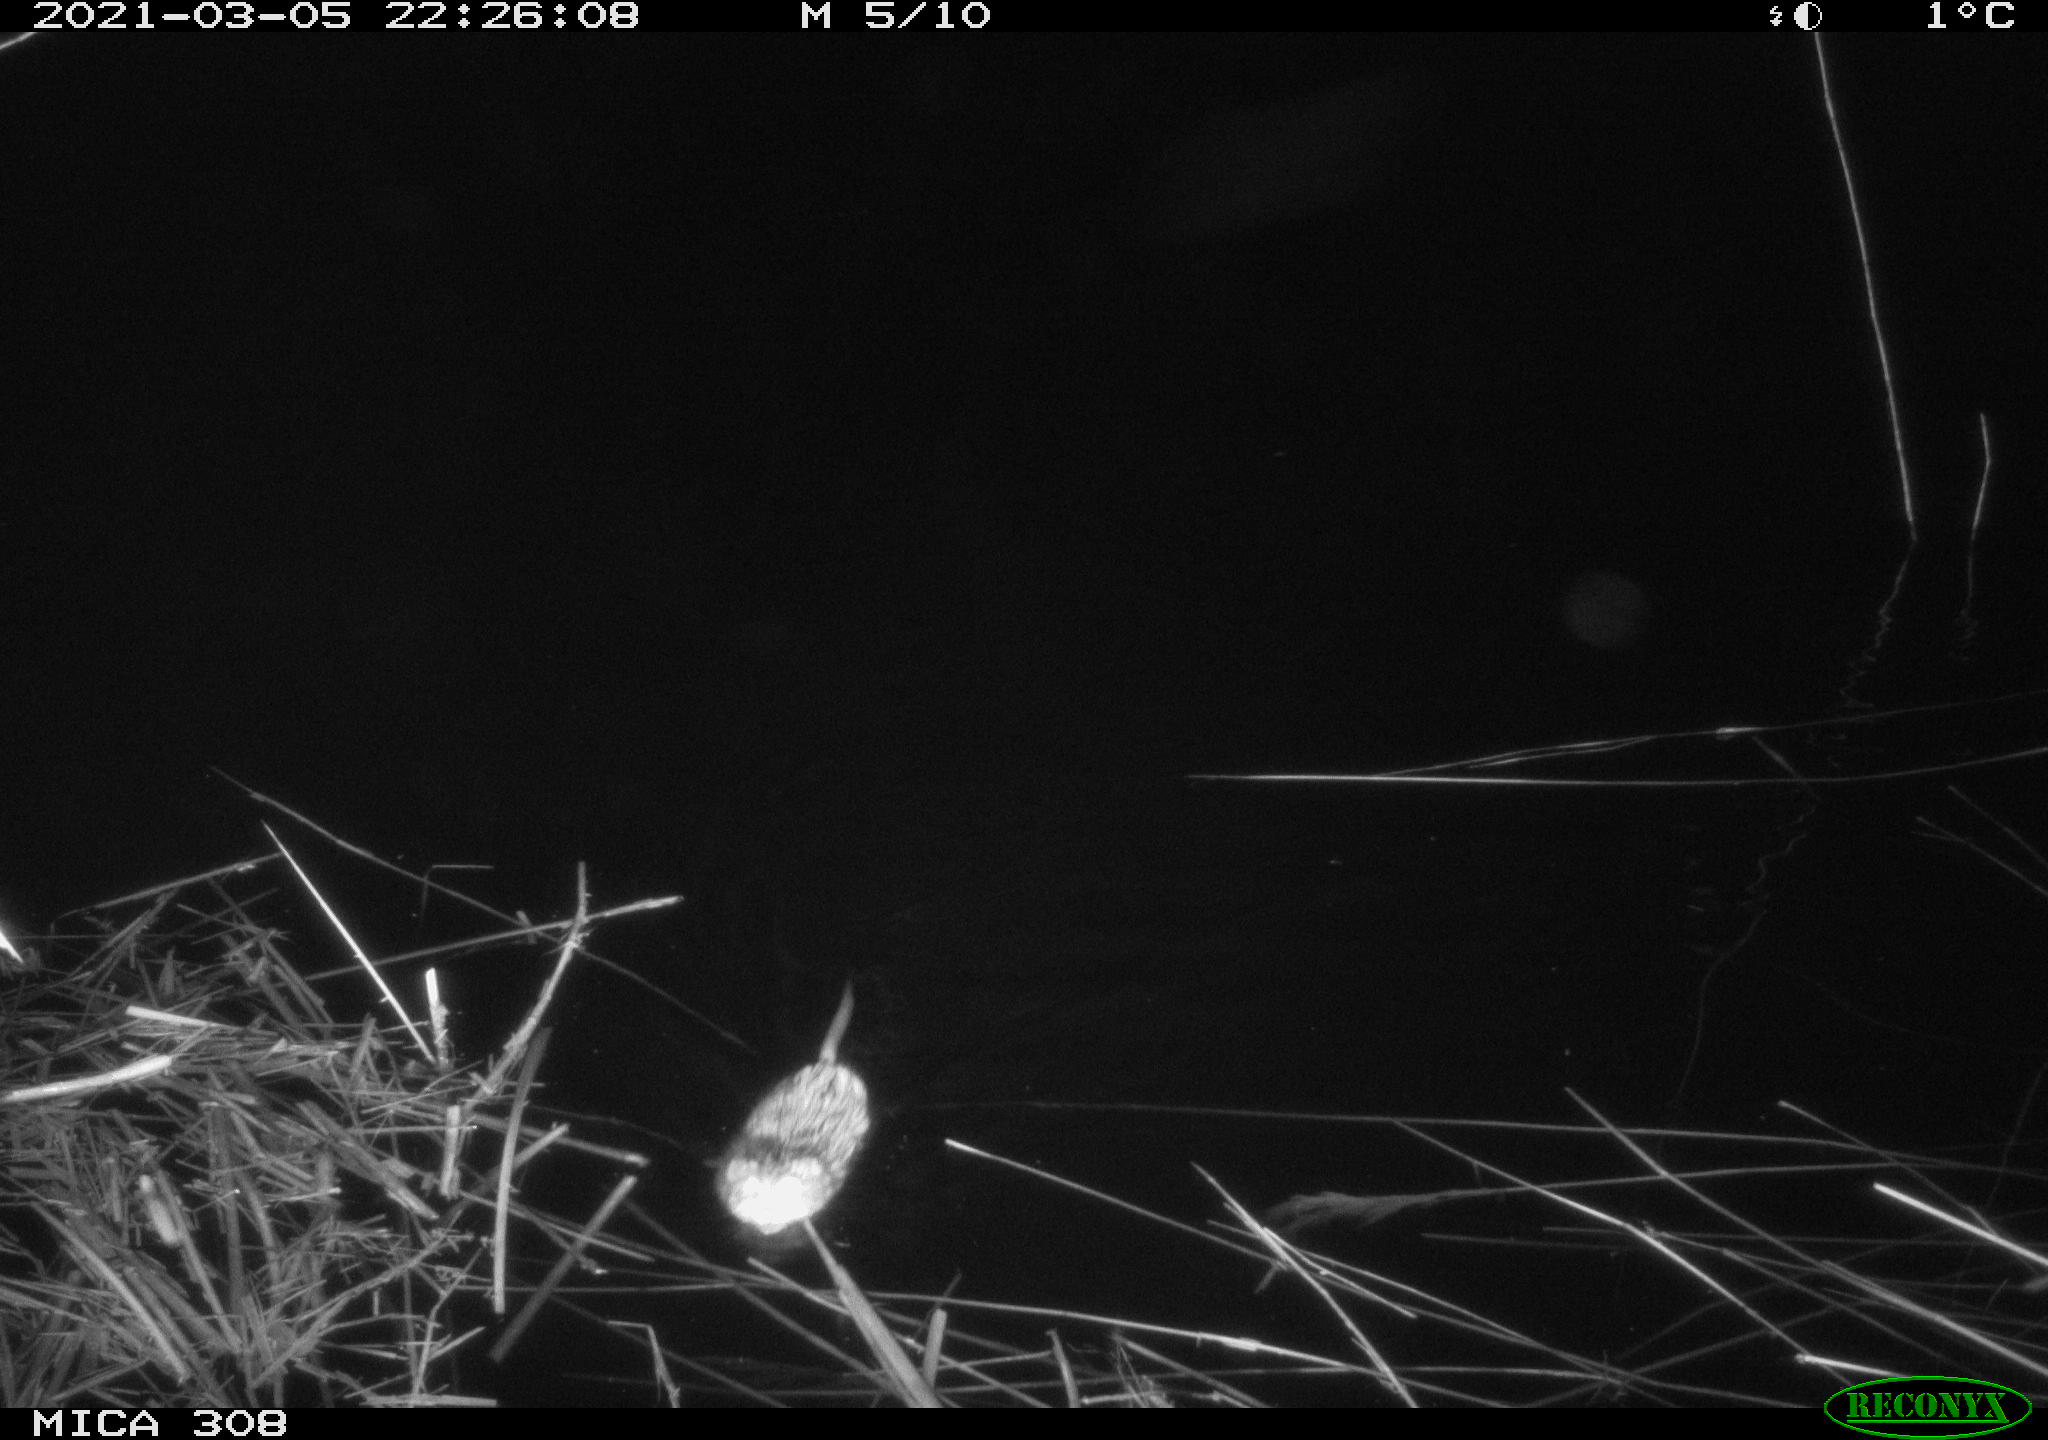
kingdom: Animalia
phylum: Chordata
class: Mammalia
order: Rodentia
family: Cricetidae
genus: Ondatra
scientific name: Ondatra zibethicus
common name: Muskrat
